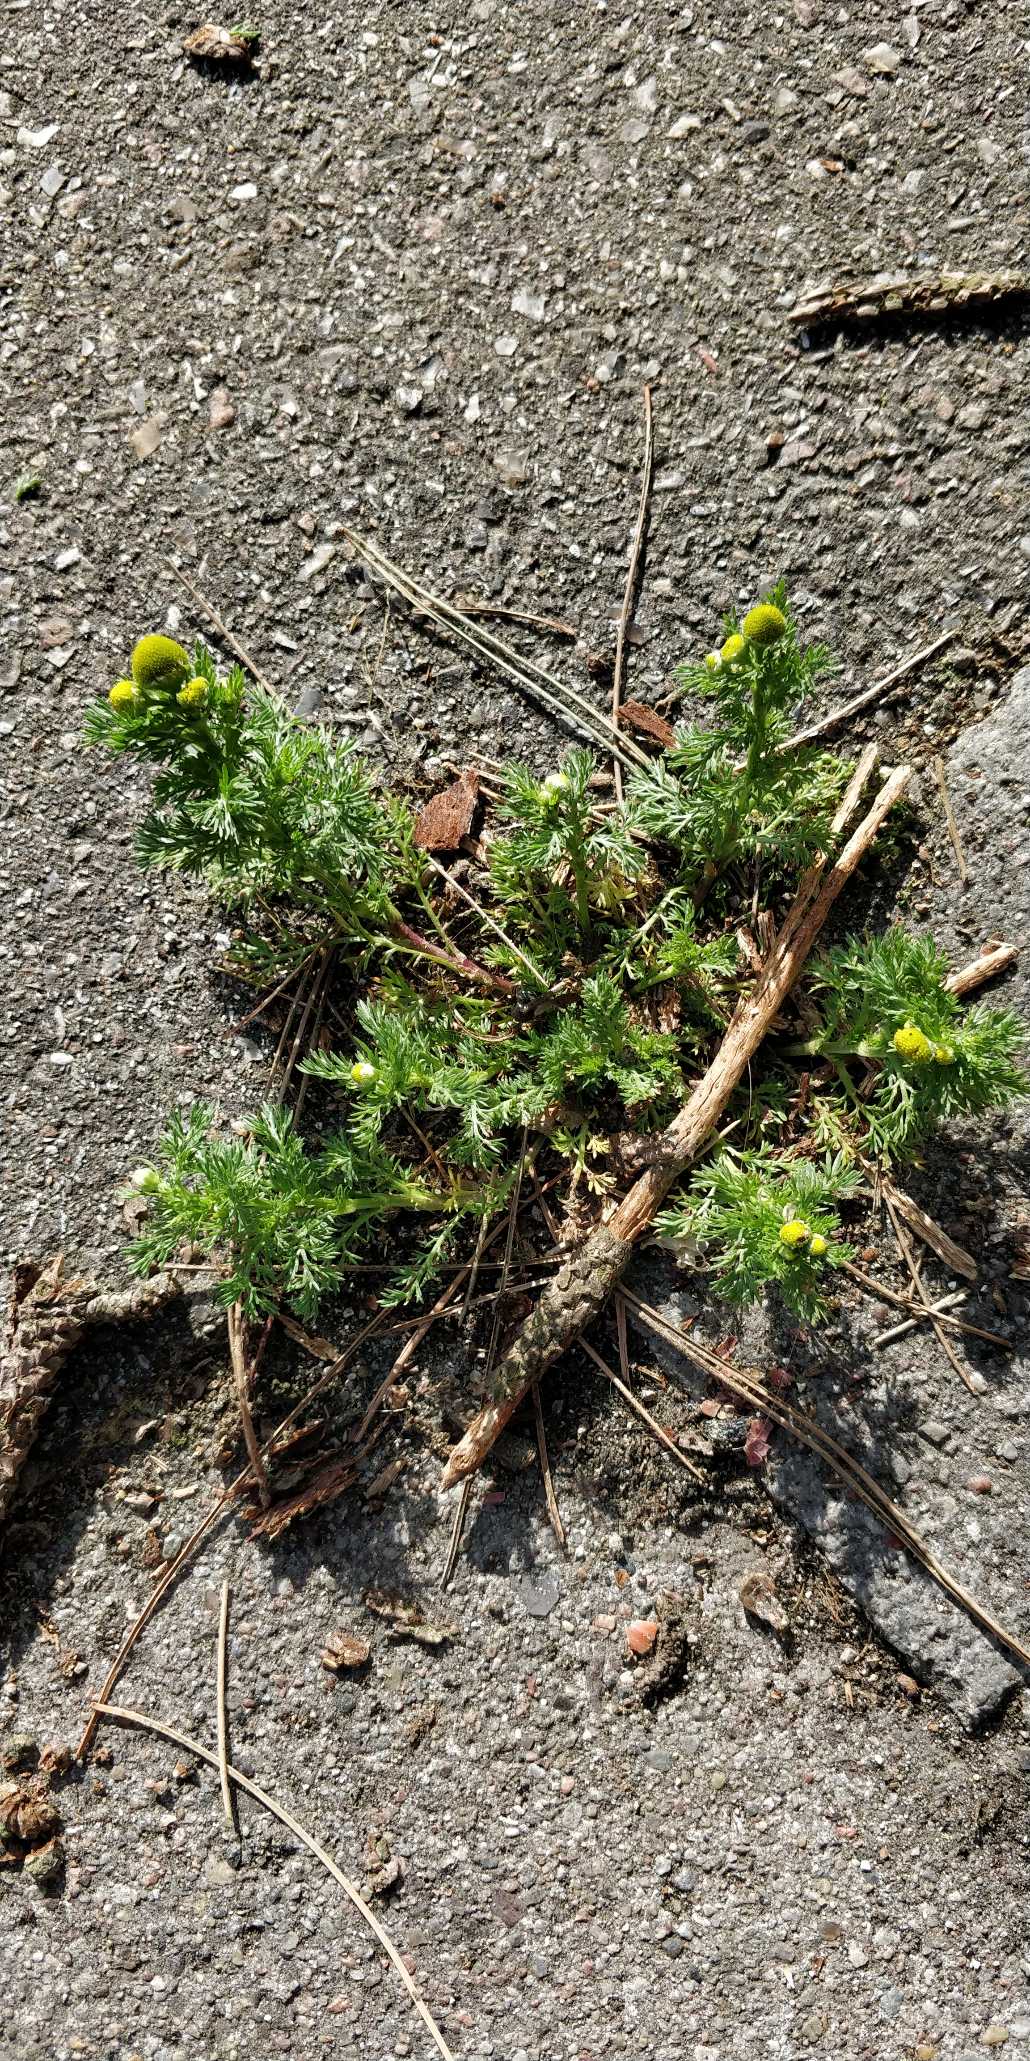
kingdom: Plantae
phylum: Tracheophyta
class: Magnoliopsida
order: Asterales
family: Asteraceae
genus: Matricaria
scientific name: Matricaria discoidea
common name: Skive-kamille
